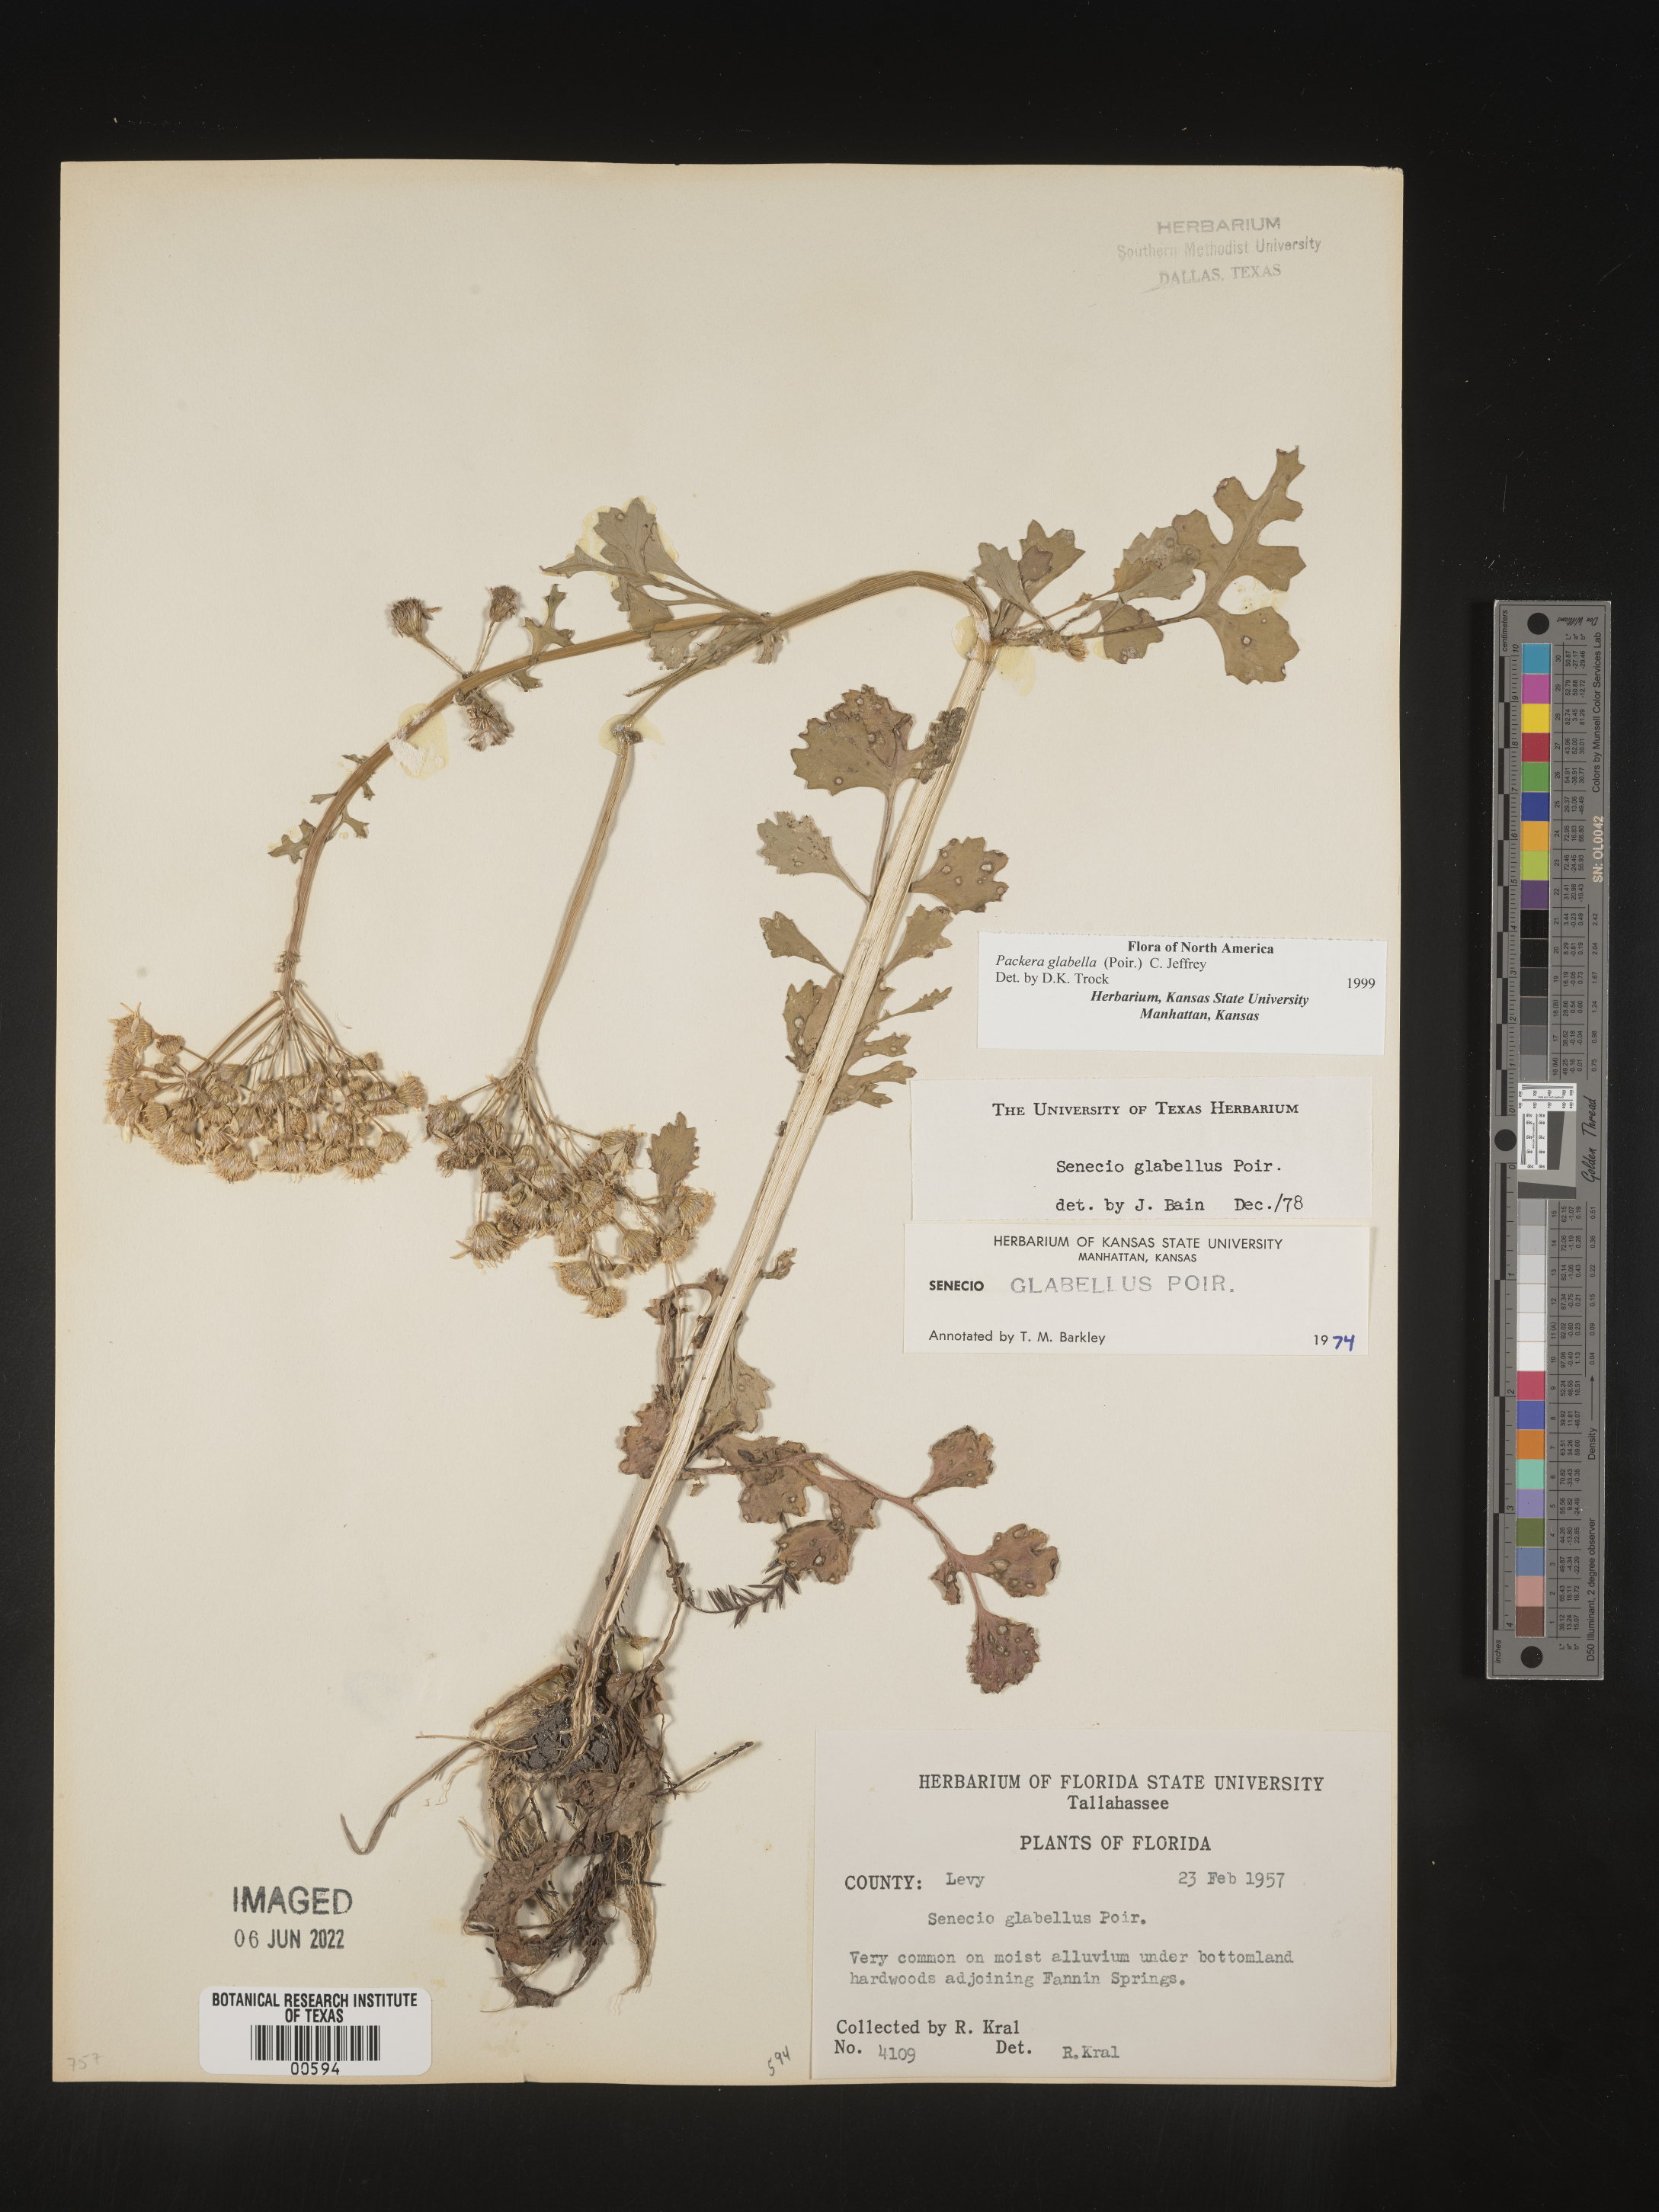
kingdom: Plantae
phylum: Tracheophyta
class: Magnoliopsida
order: Asterales
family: Asteraceae
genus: Packera
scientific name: Packera glabella
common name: Butterweed
